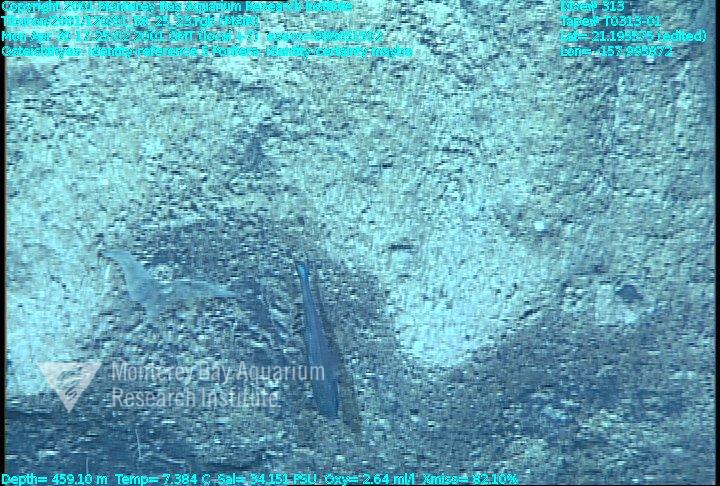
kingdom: Animalia
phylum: Porifera
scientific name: Porifera
